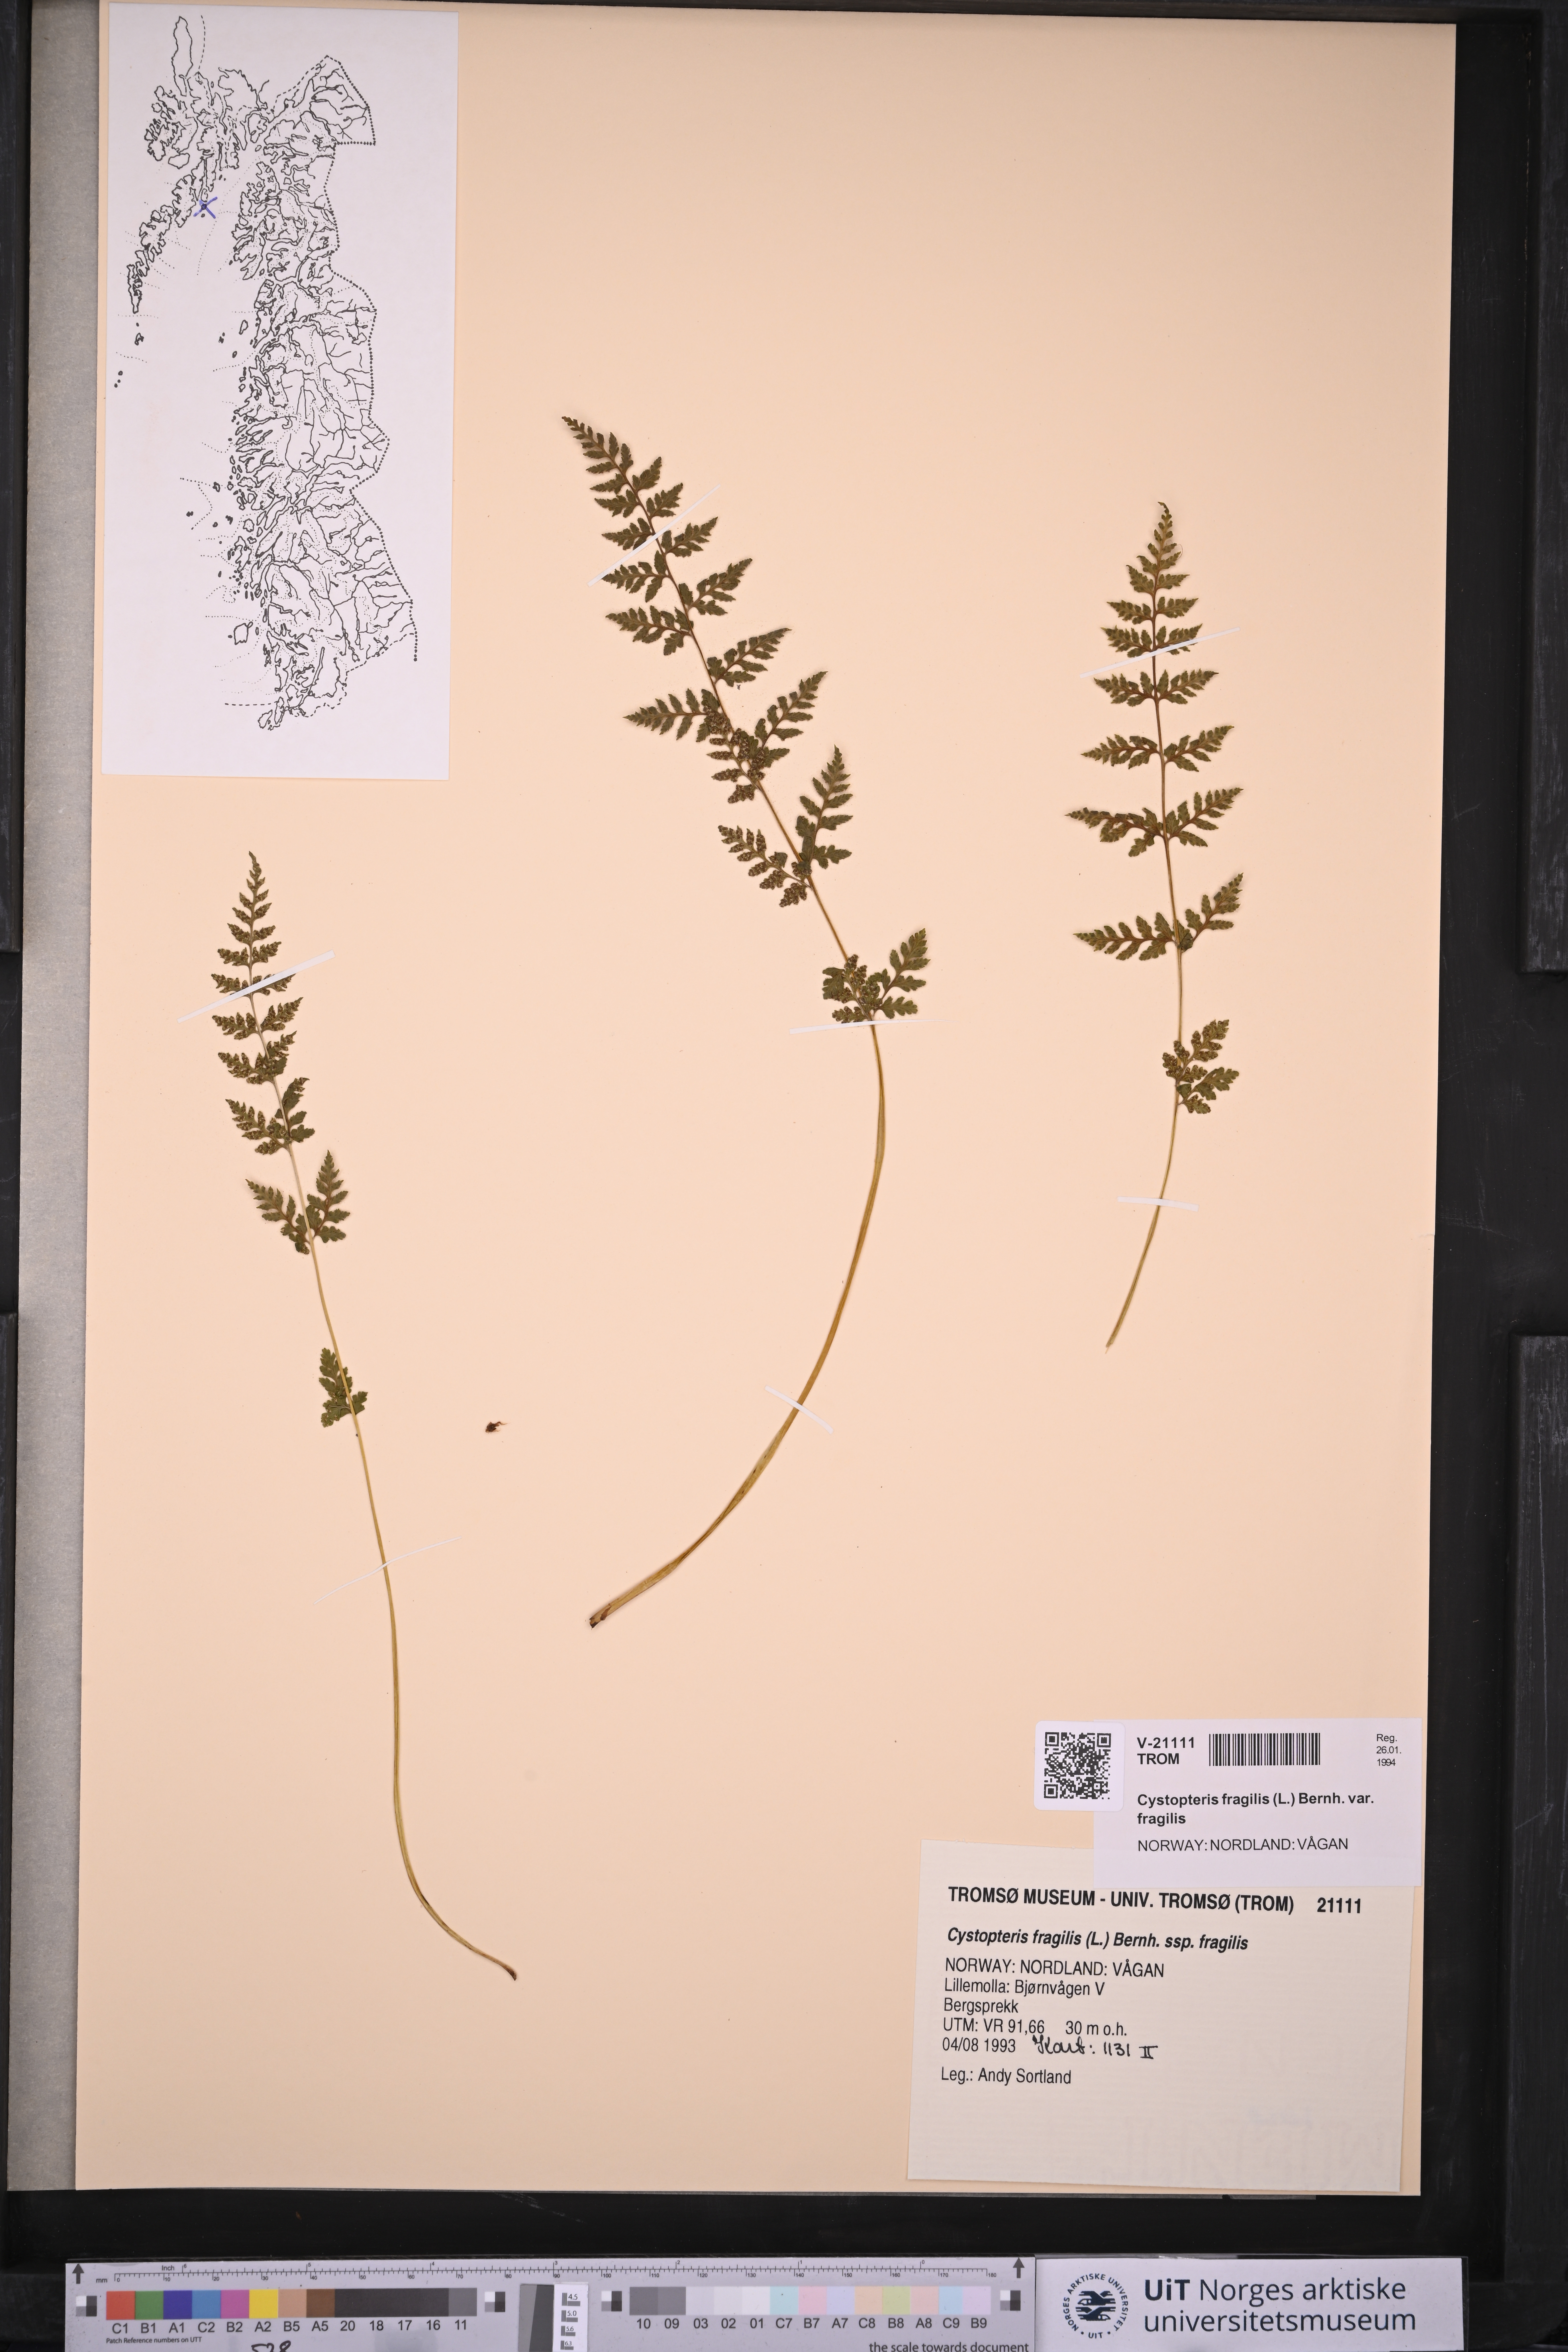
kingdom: Plantae
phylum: Tracheophyta
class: Polypodiopsida
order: Polypodiales
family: Cystopteridaceae
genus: Cystopteris
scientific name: Cystopteris fragilis
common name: Brittle bladder fern
